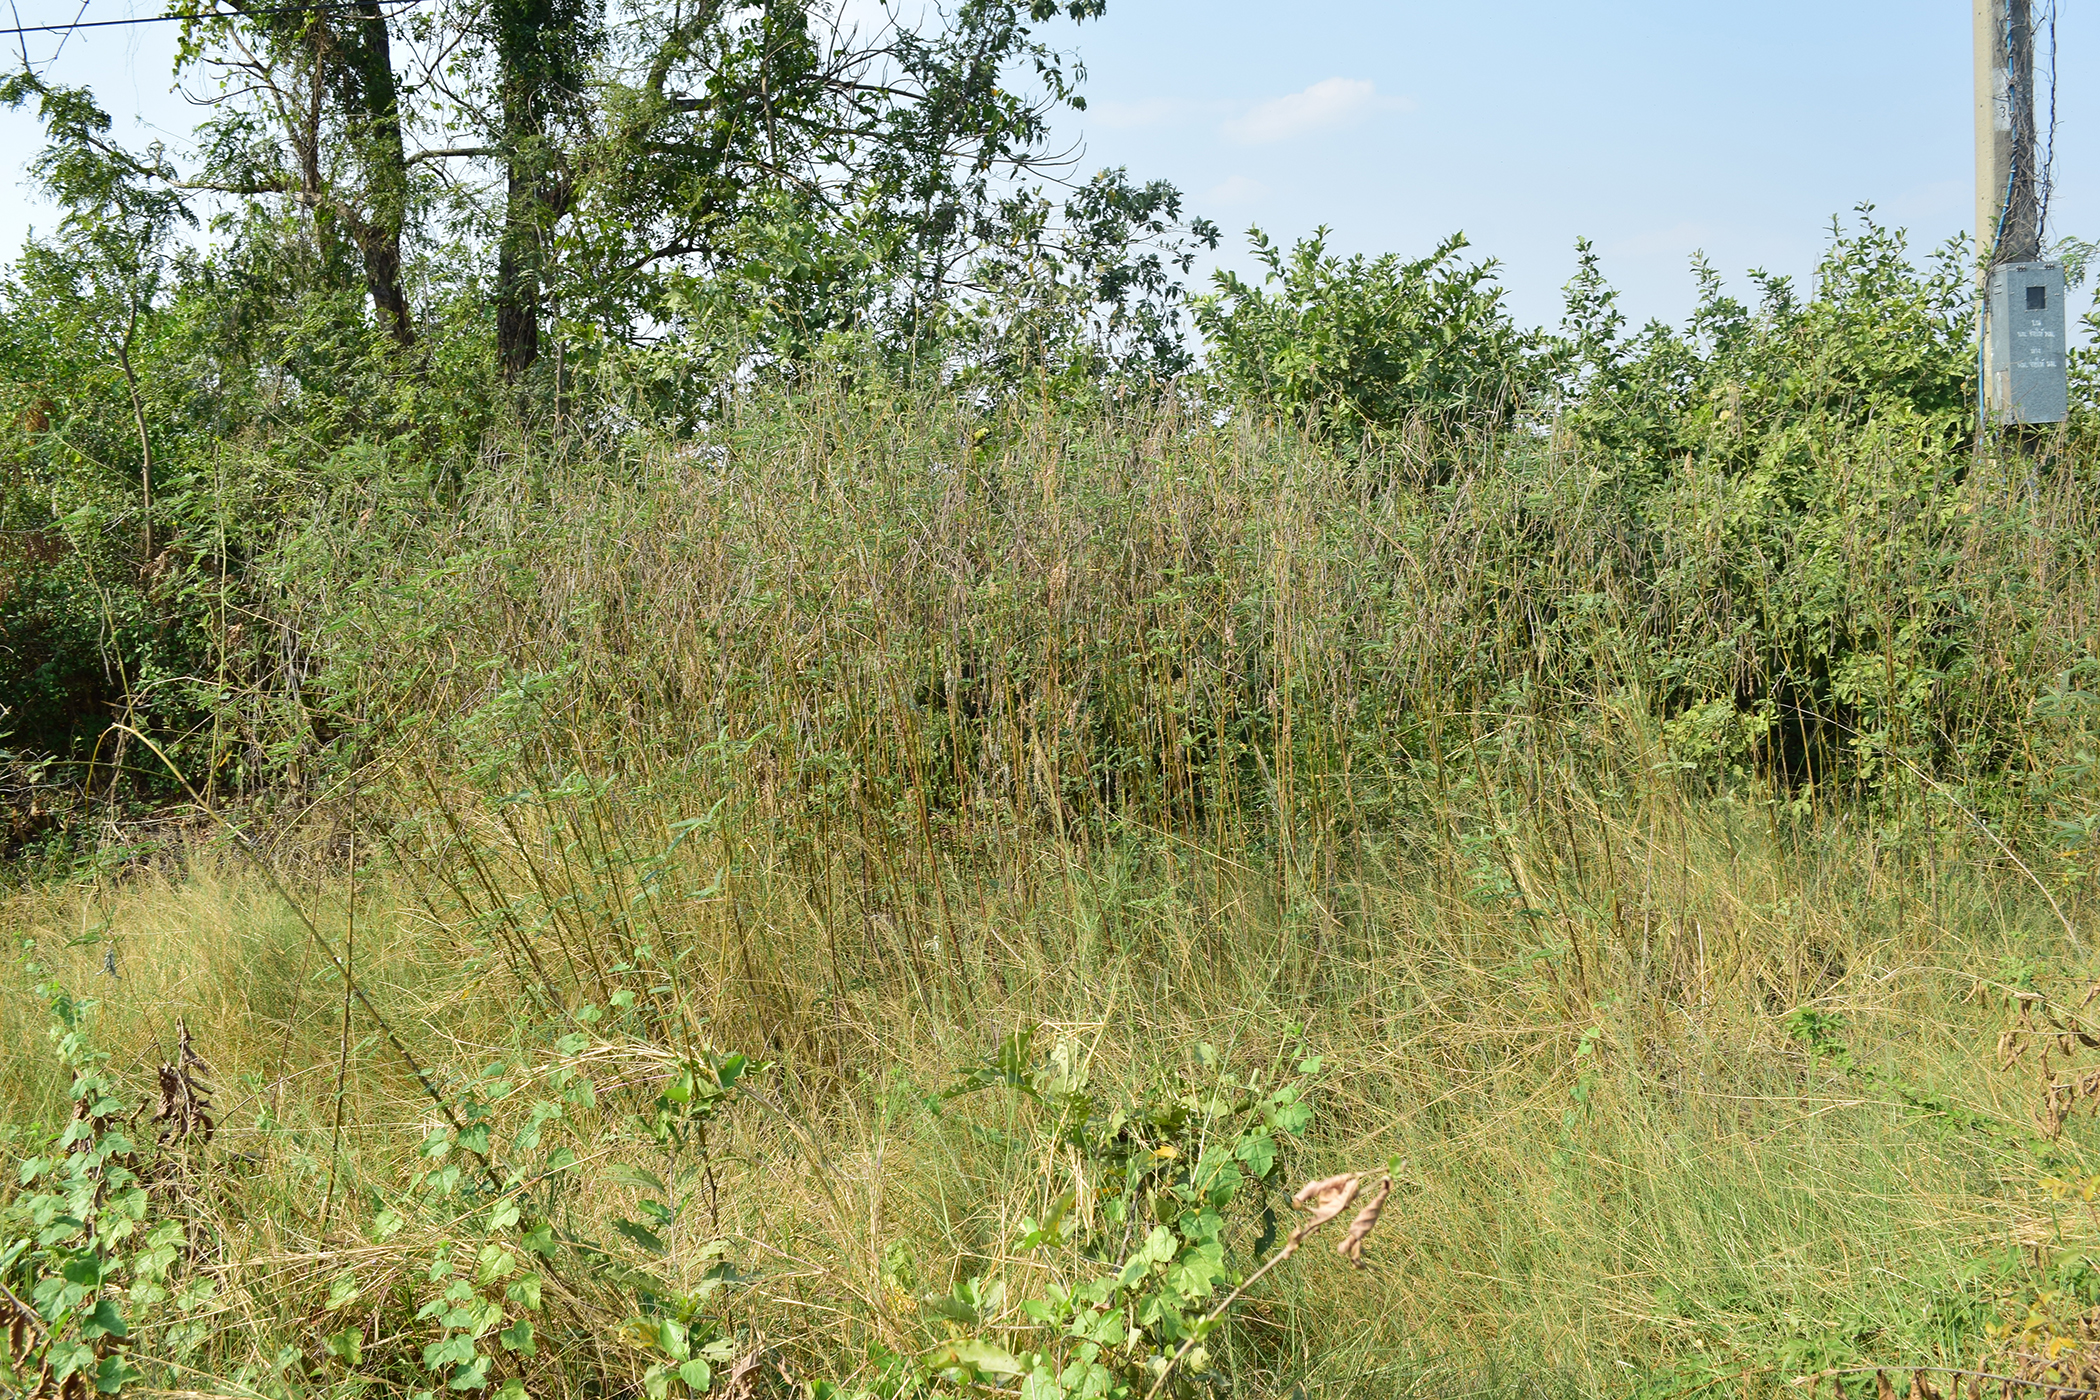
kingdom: Plantae
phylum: Tracheophyta
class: Magnoliopsida
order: Fabales
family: Fabaceae
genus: Sesbania
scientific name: Sesbania javanica
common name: Sesbania-pea
